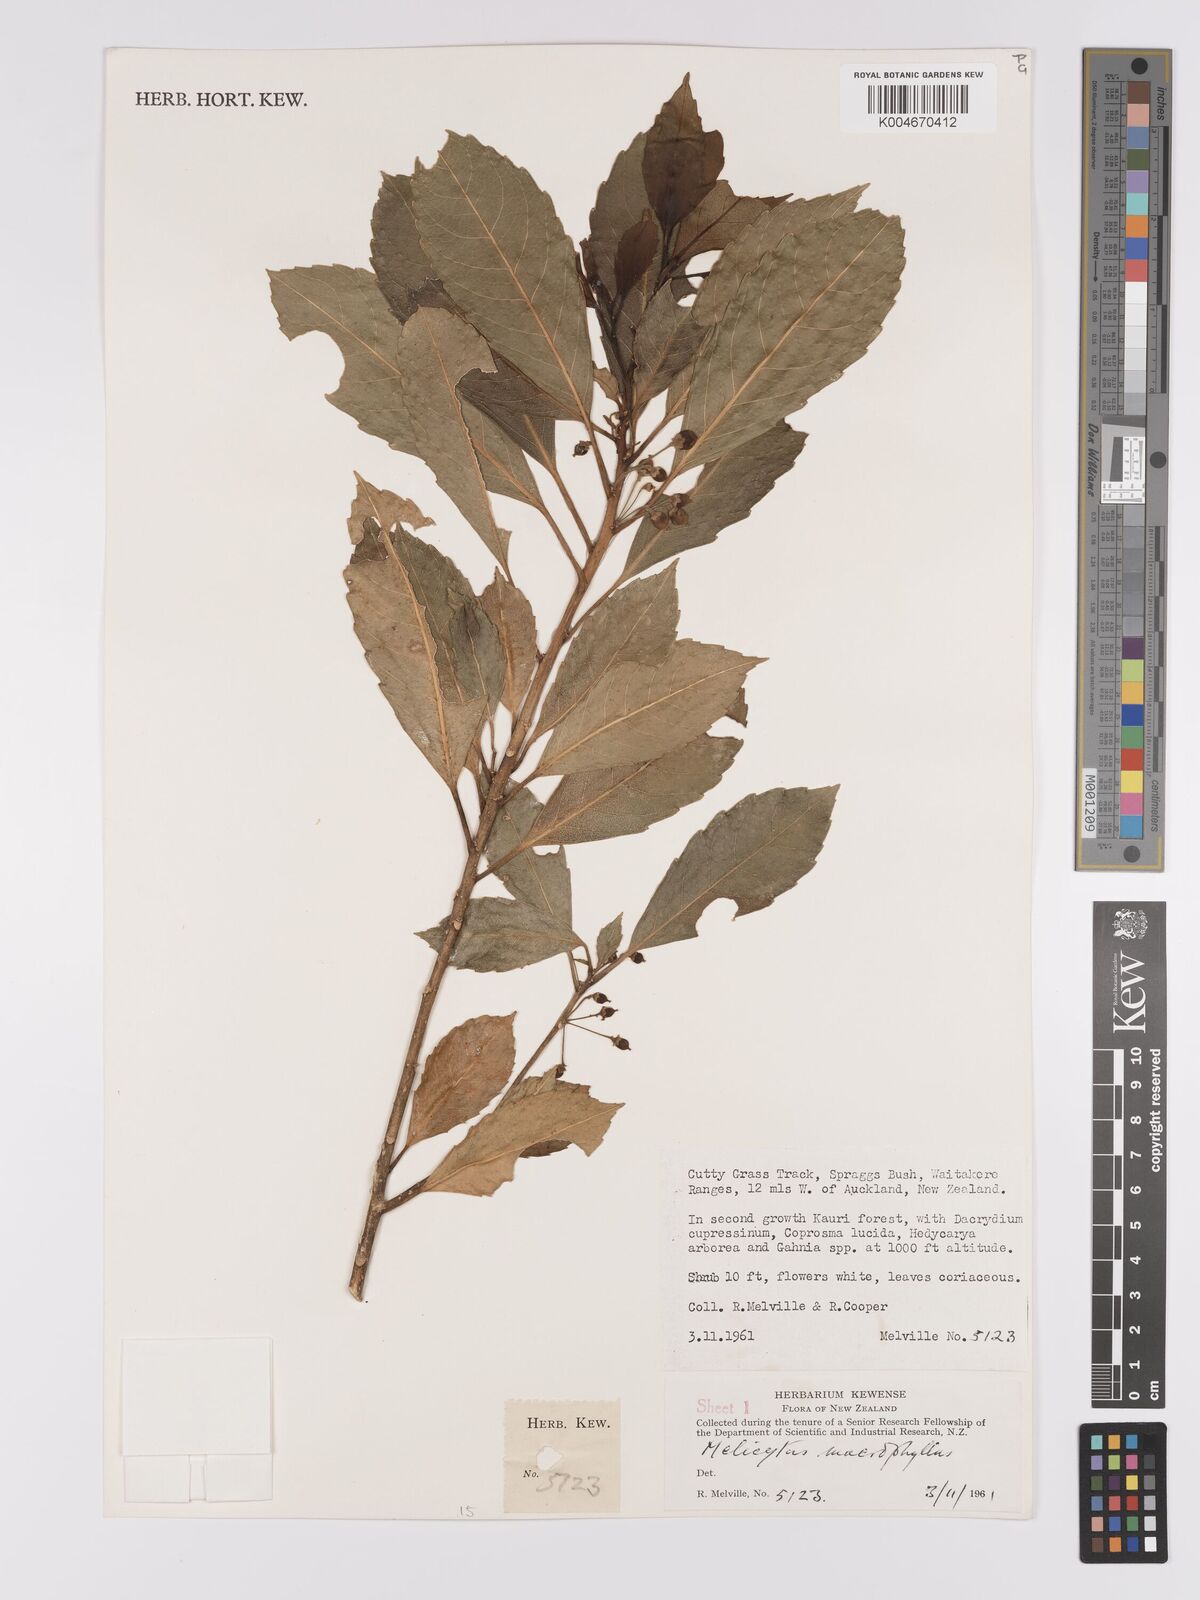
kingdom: Plantae
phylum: Tracheophyta
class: Magnoliopsida
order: Malpighiales
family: Violaceae
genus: Melicytus
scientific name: Melicytus macrophyllus
